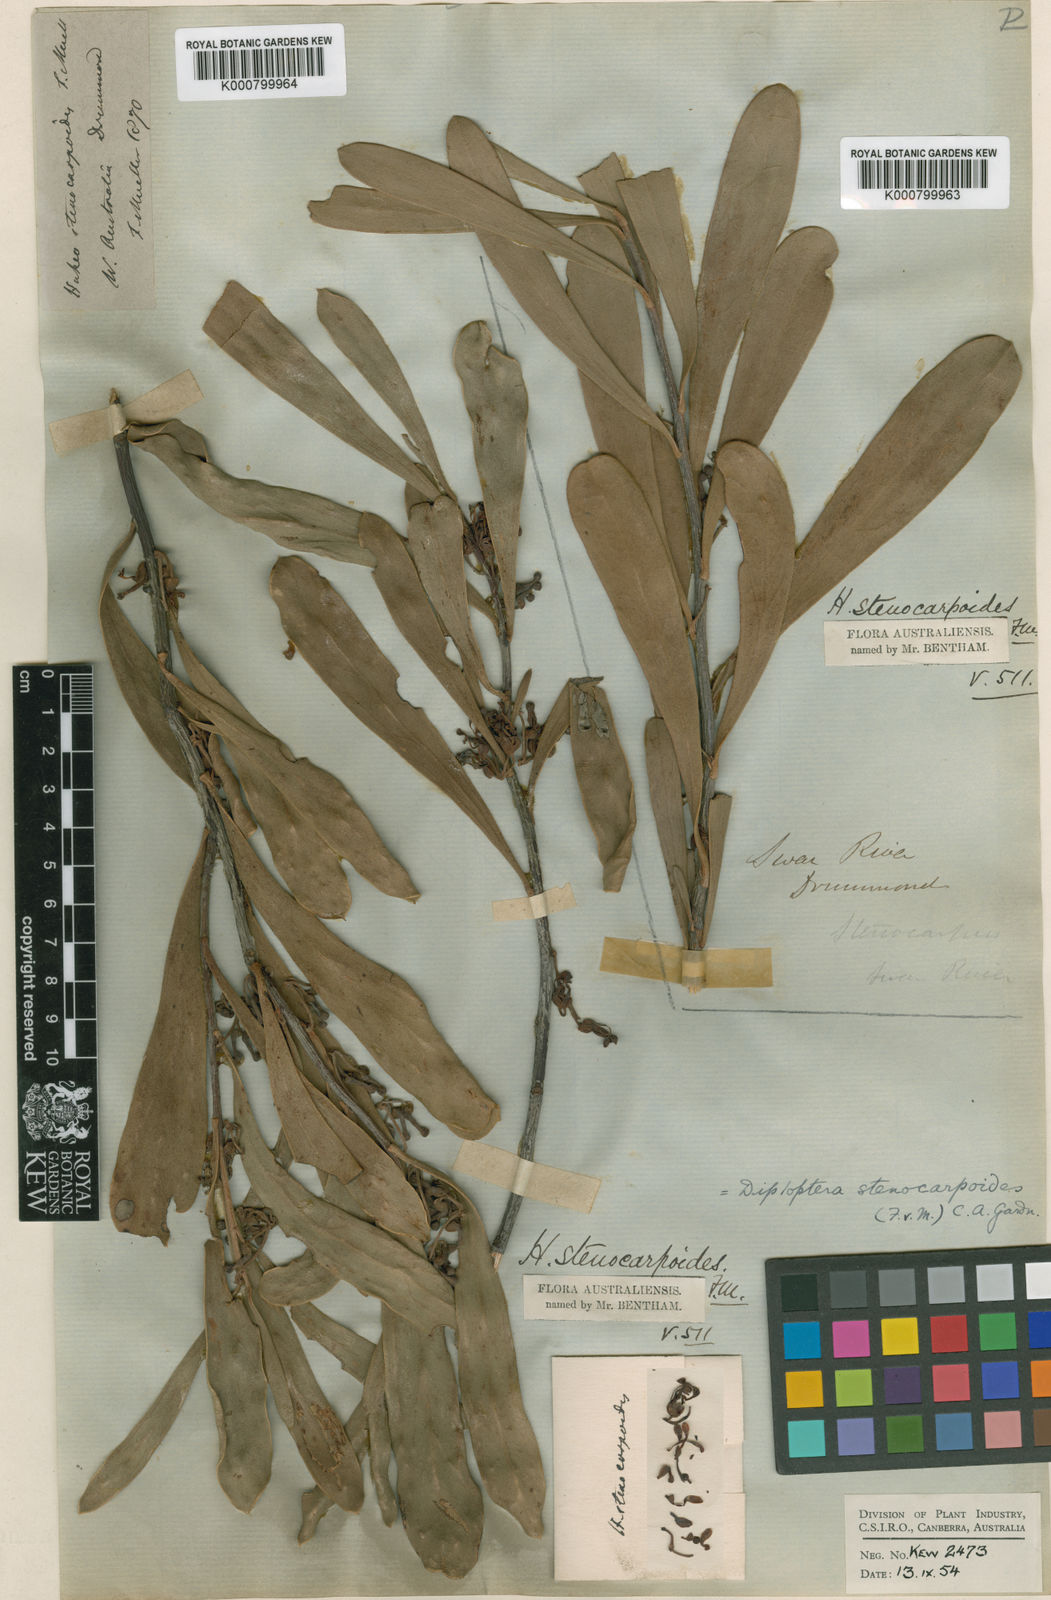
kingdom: Plantae
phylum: Tracheophyta
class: Magnoliopsida
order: Proteales
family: Proteaceae
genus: Strangea
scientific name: Strangea stenocarpoides
